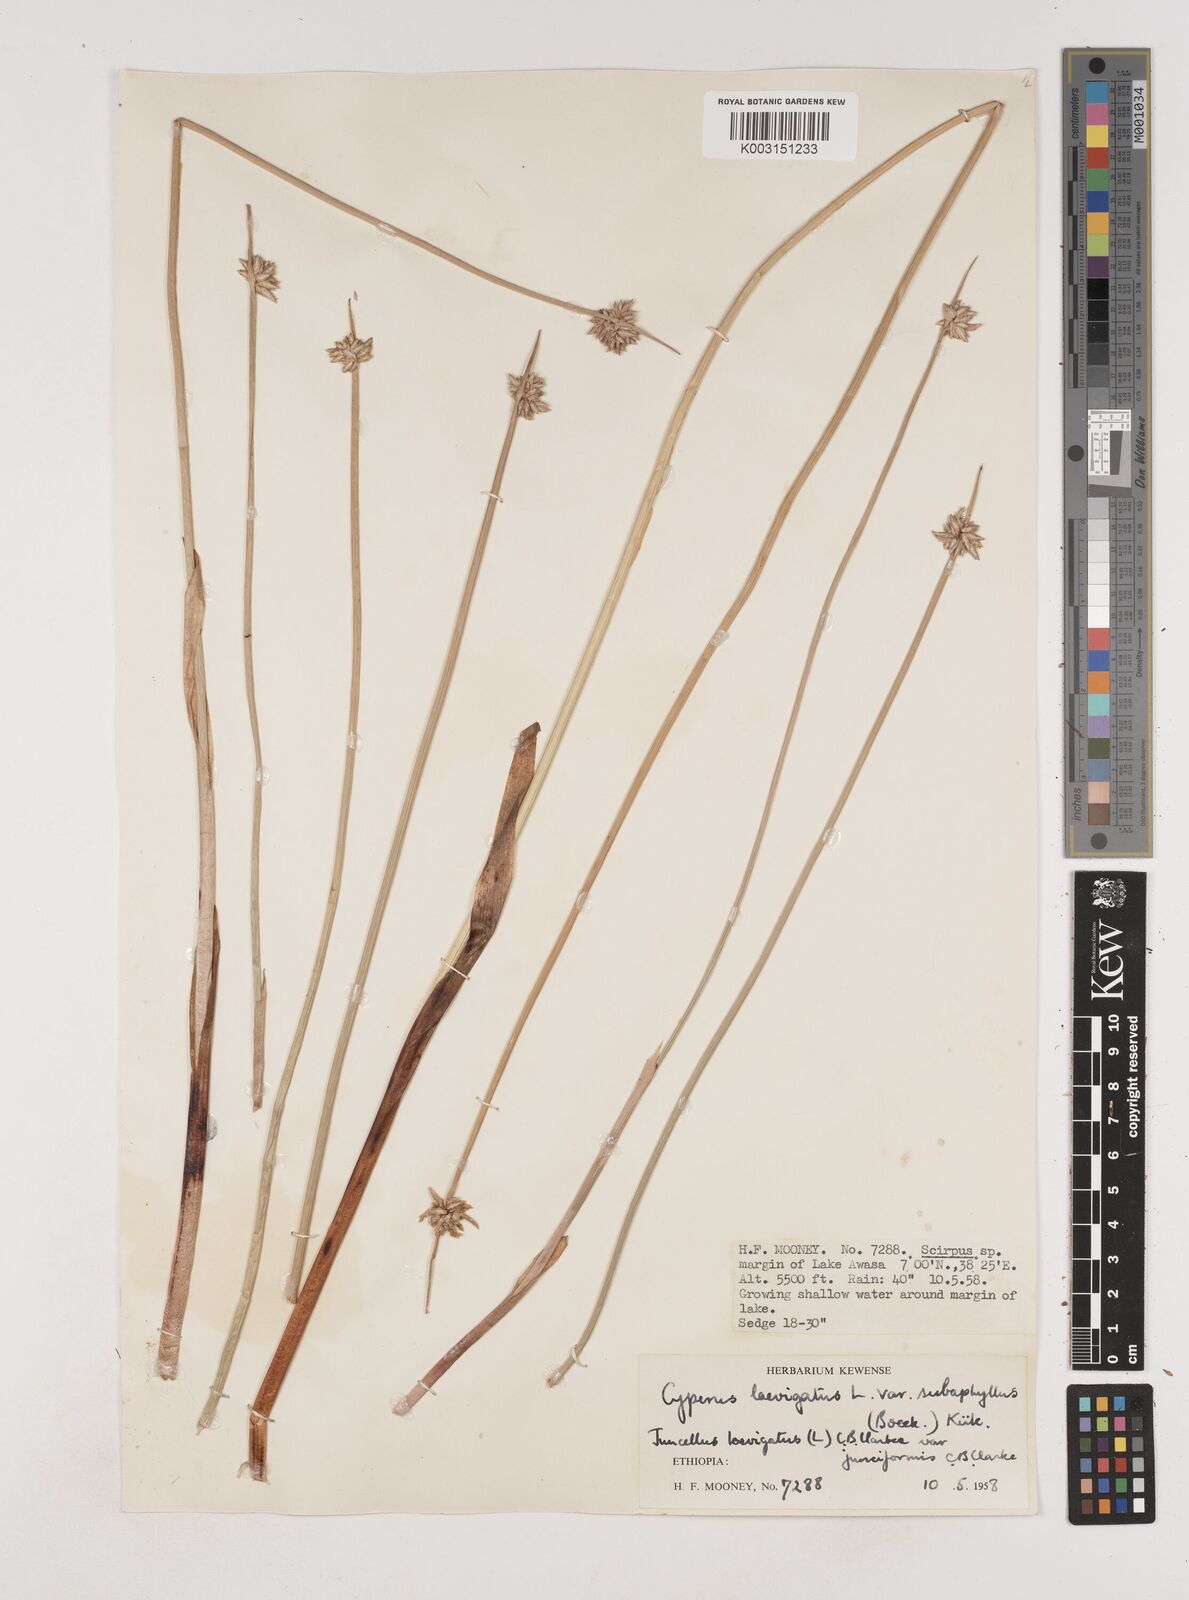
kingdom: Plantae
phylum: Tracheophyta
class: Liliopsida
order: Poales
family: Cyperaceae
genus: Cyperus
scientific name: Cyperus laevigatus
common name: Smooth flat sedge
